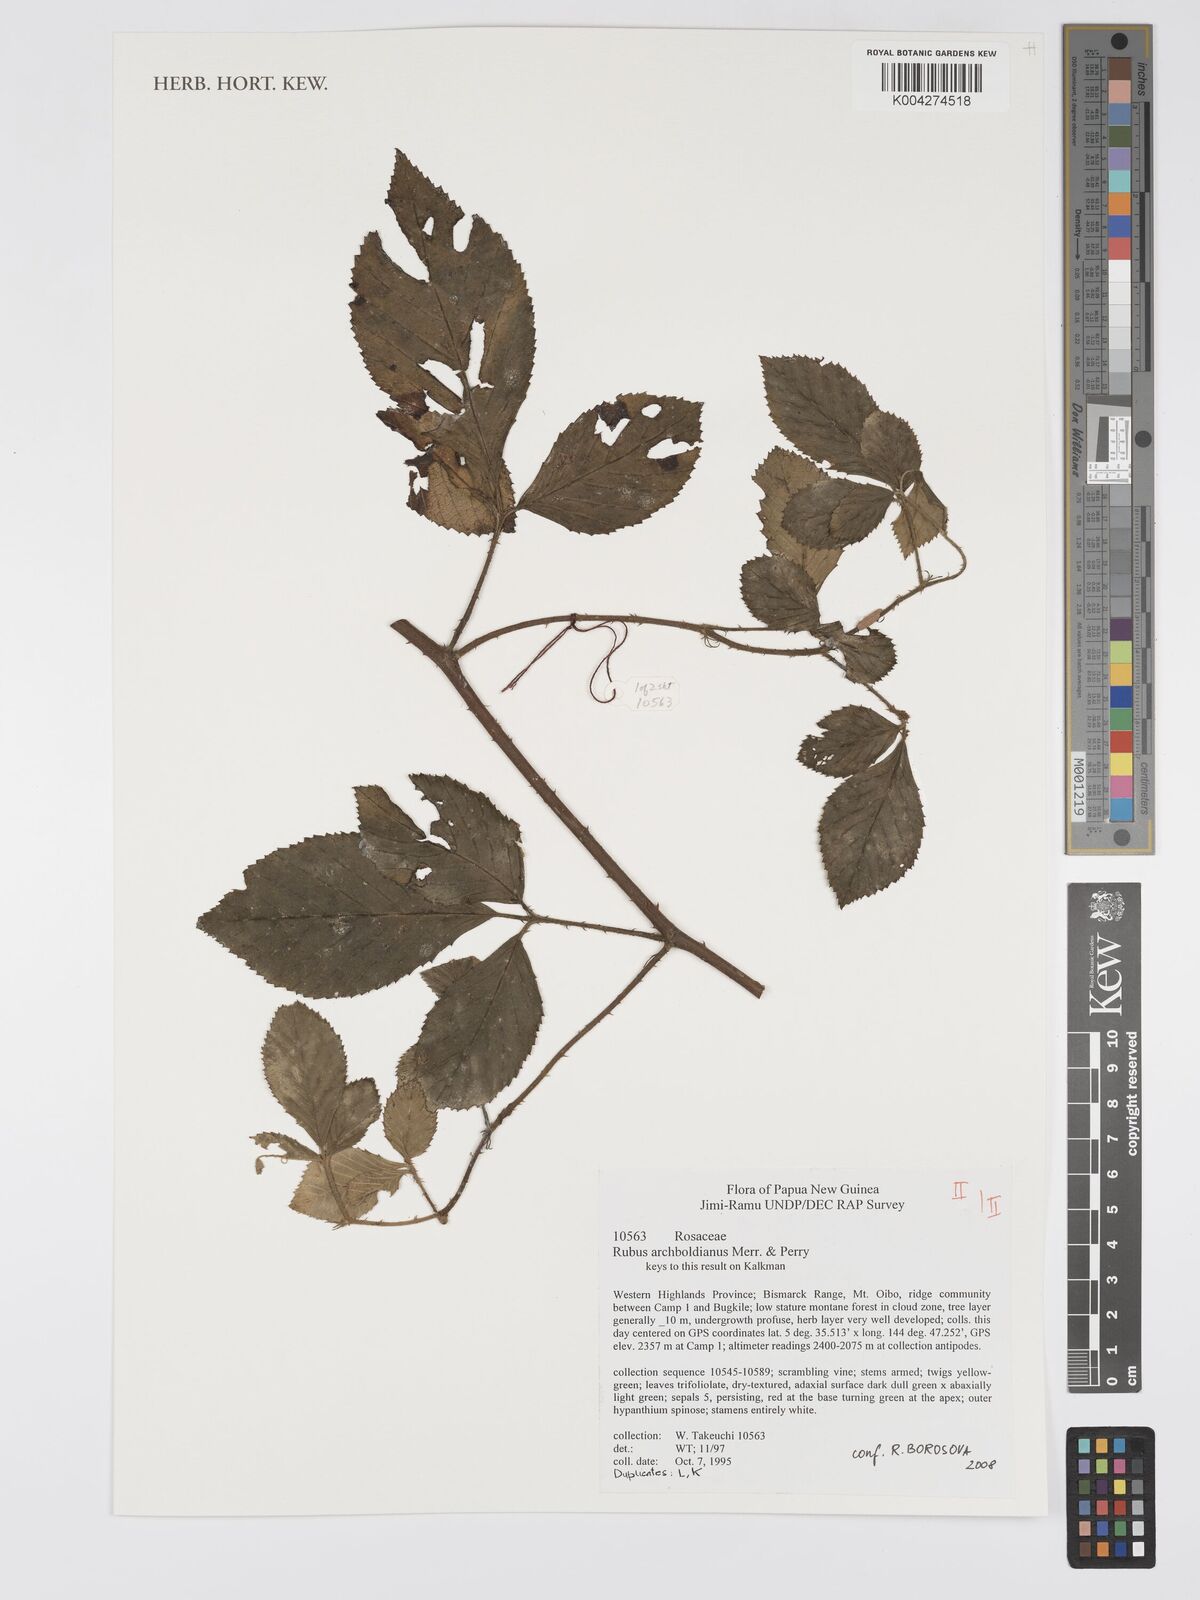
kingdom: Plantae
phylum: Tracheophyta
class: Magnoliopsida
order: Rosales
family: Rosaceae
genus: Rubus
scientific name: Rubus archboldianus
